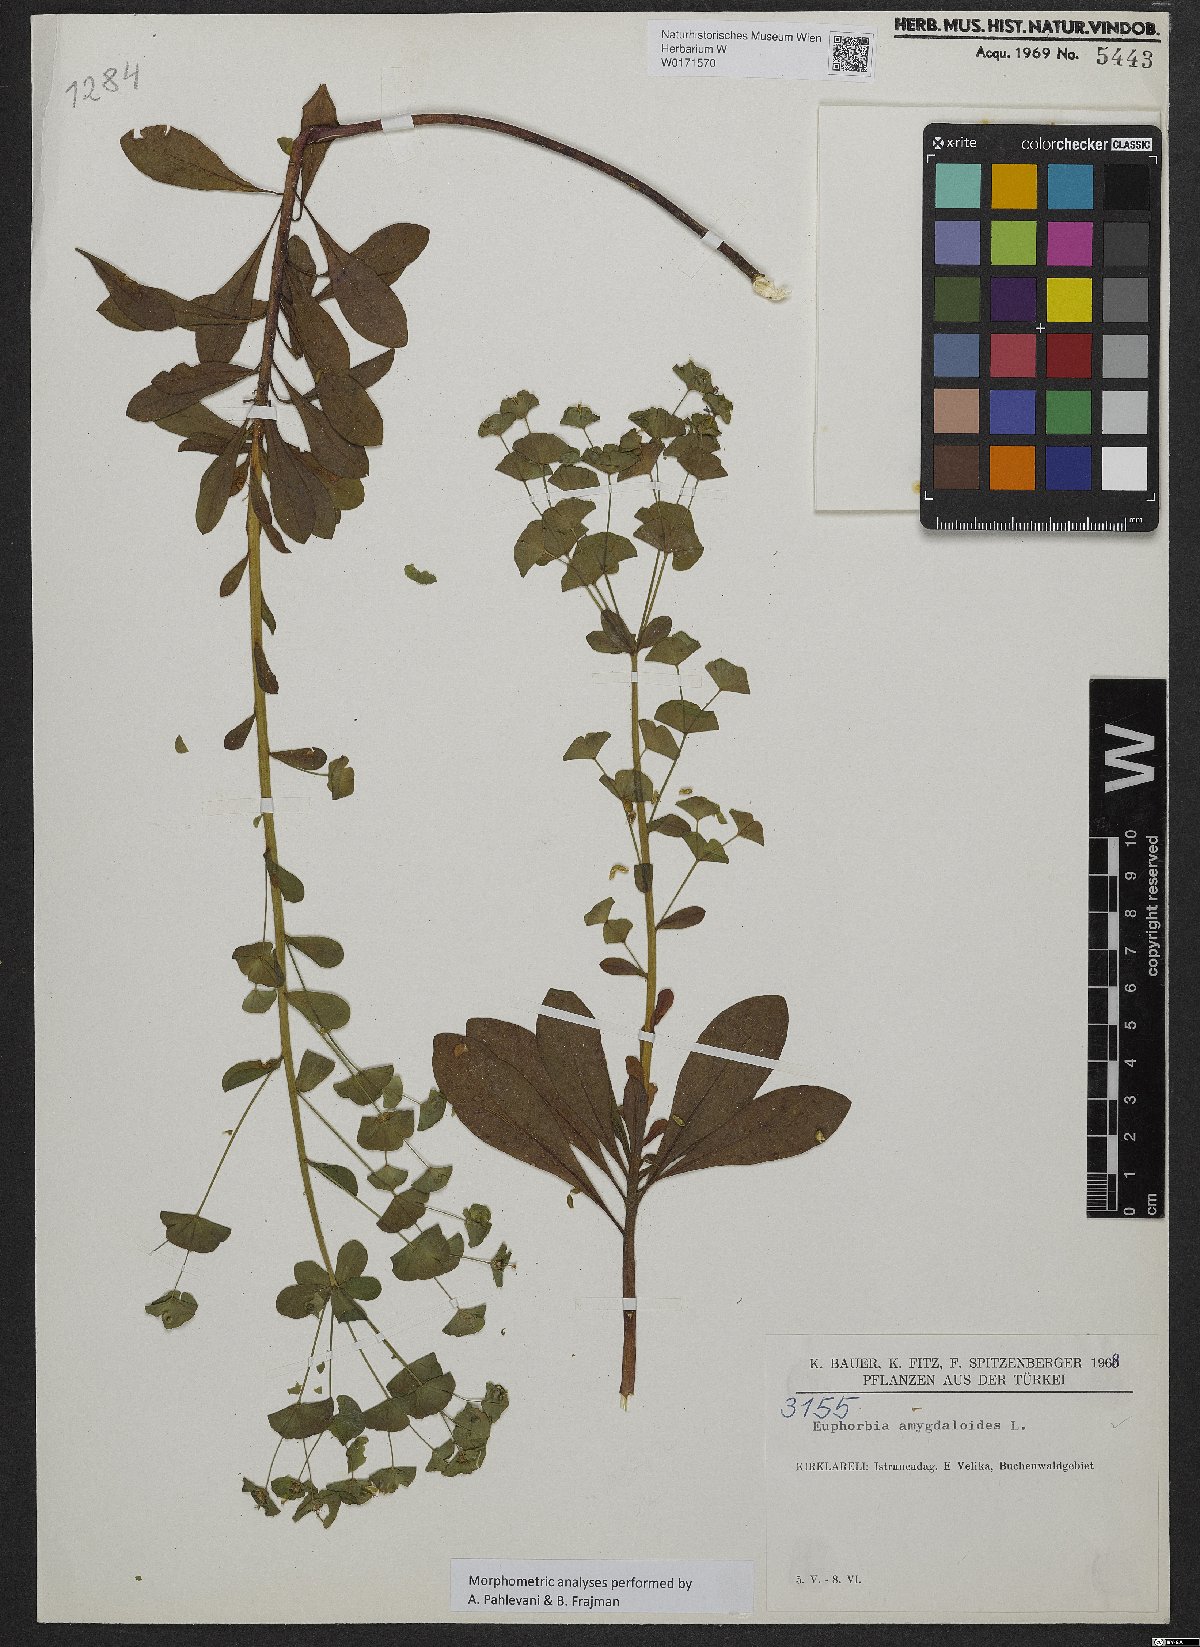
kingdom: Plantae
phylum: Tracheophyta
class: Magnoliopsida
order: Malpighiales
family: Euphorbiaceae
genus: Euphorbia
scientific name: Euphorbia amygdaloides
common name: Wood spurge
